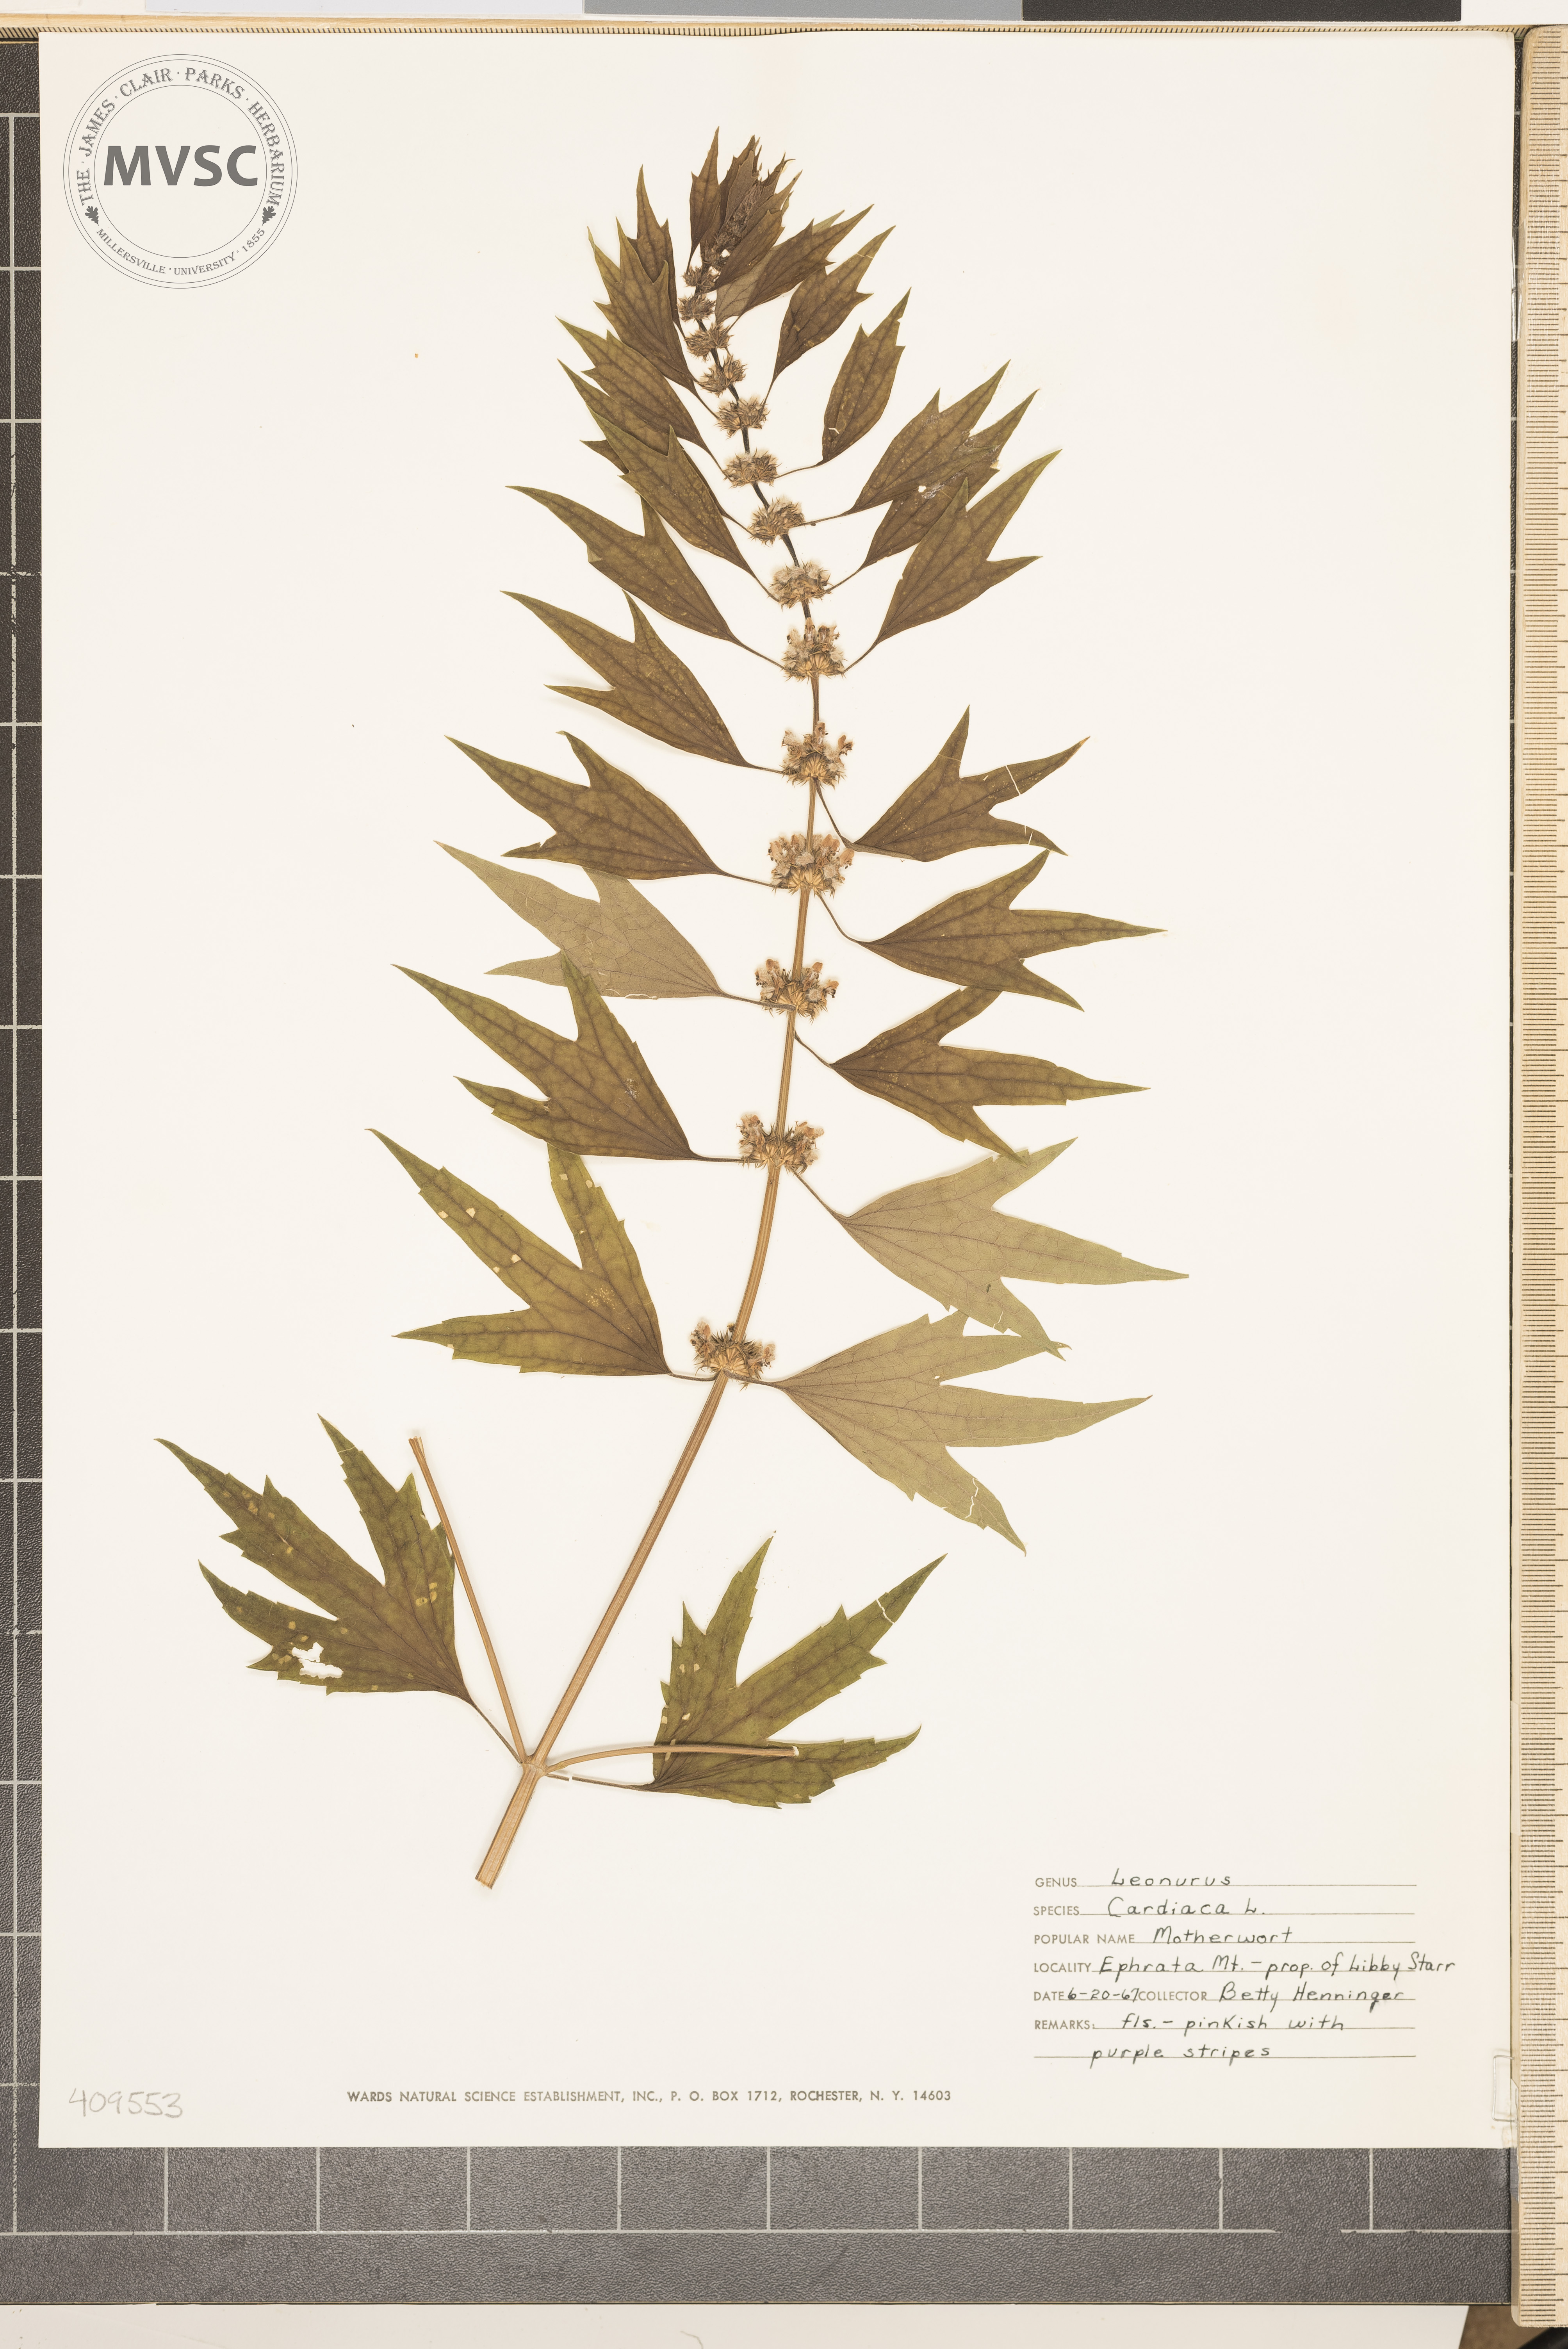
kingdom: Plantae
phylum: Tracheophyta
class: Magnoliopsida
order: Lamiales
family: Lamiaceae
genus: Leonurus
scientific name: Leonurus cardiaca
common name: Motherwort
